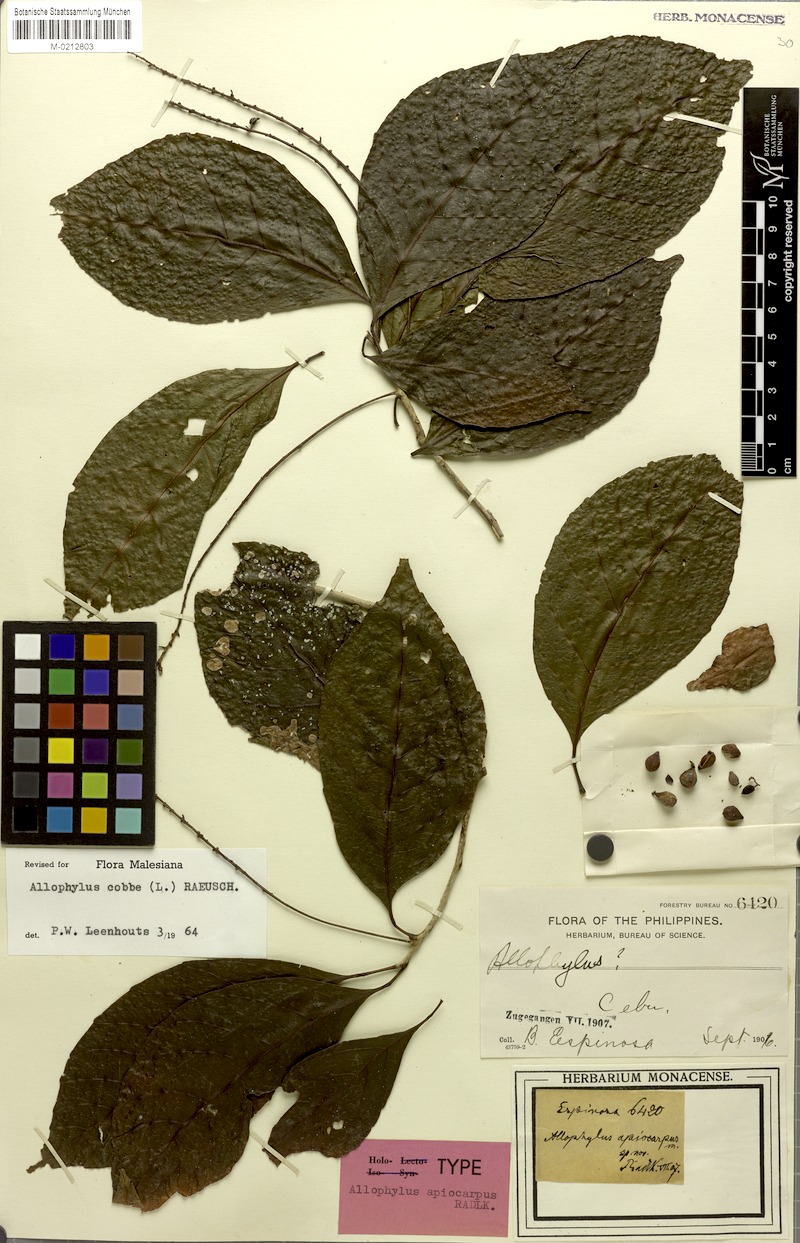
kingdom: Plantae
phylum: Tracheophyta
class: Magnoliopsida
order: Sapindales
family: Sapindaceae
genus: Allophylus
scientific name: Allophylus apiocarpus
